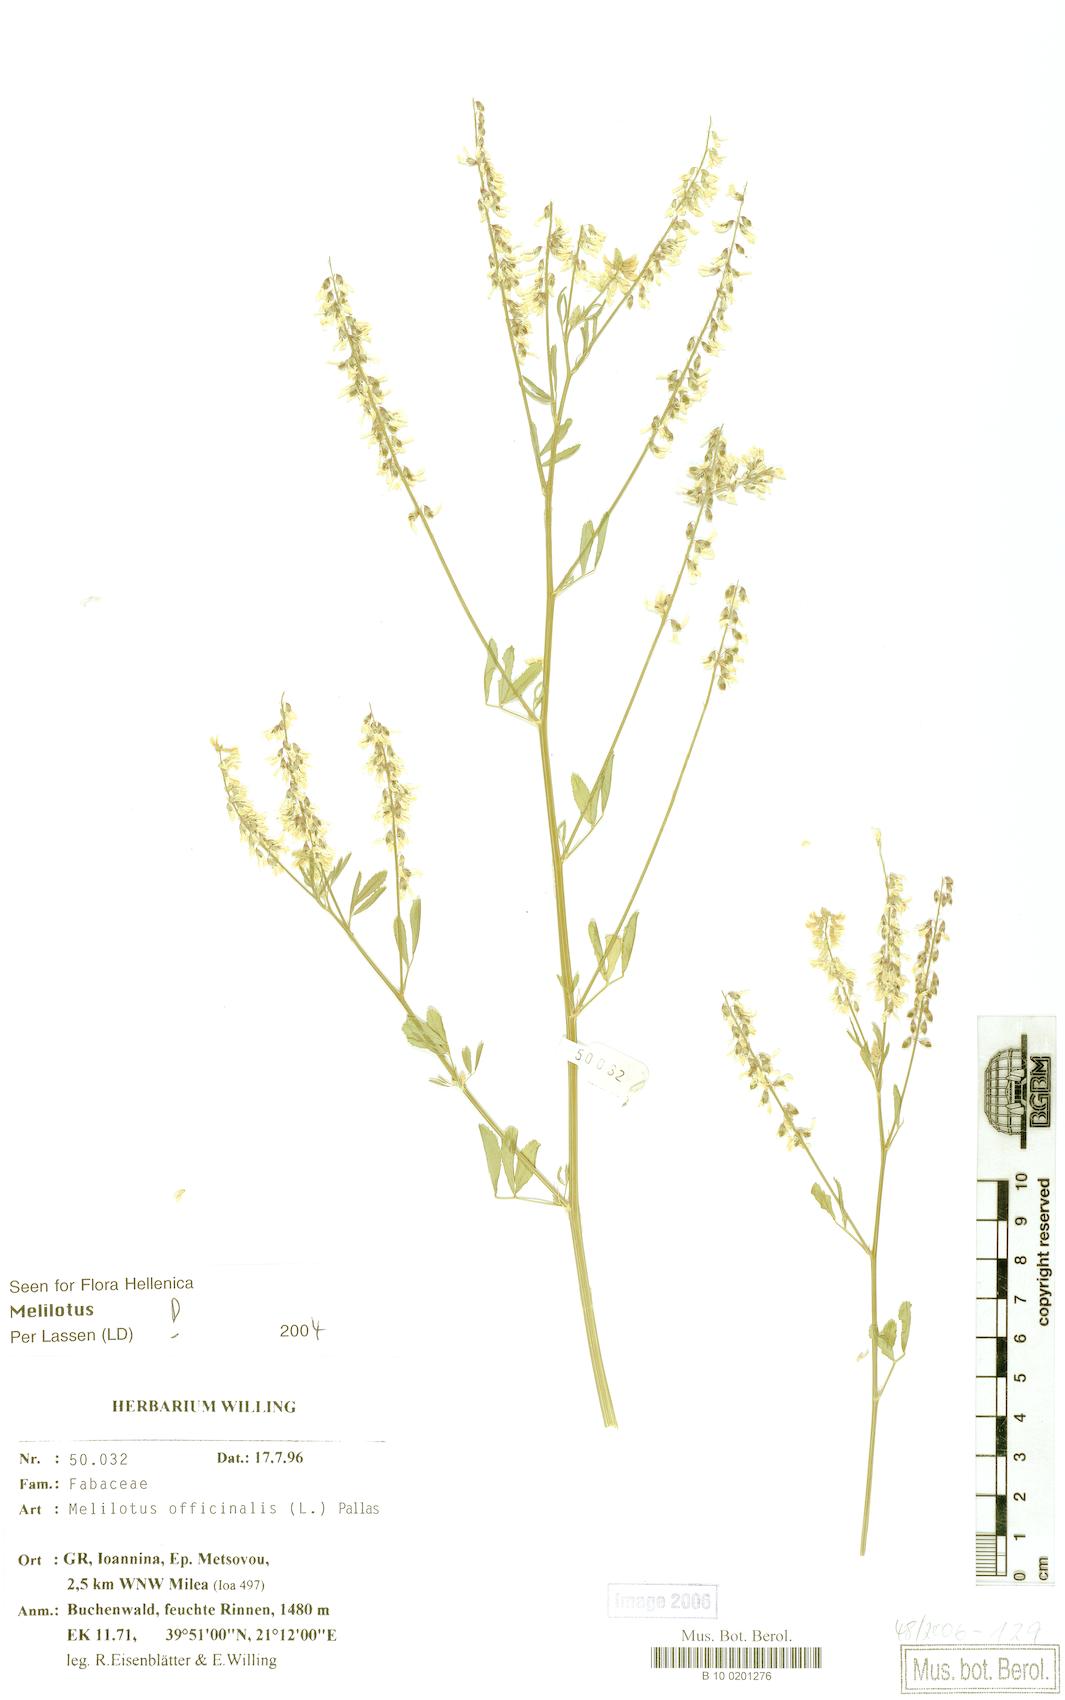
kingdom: Plantae
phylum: Tracheophyta
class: Magnoliopsida
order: Fabales
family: Fabaceae
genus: Melilotus
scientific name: Melilotus officinalis
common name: Sweetclover
